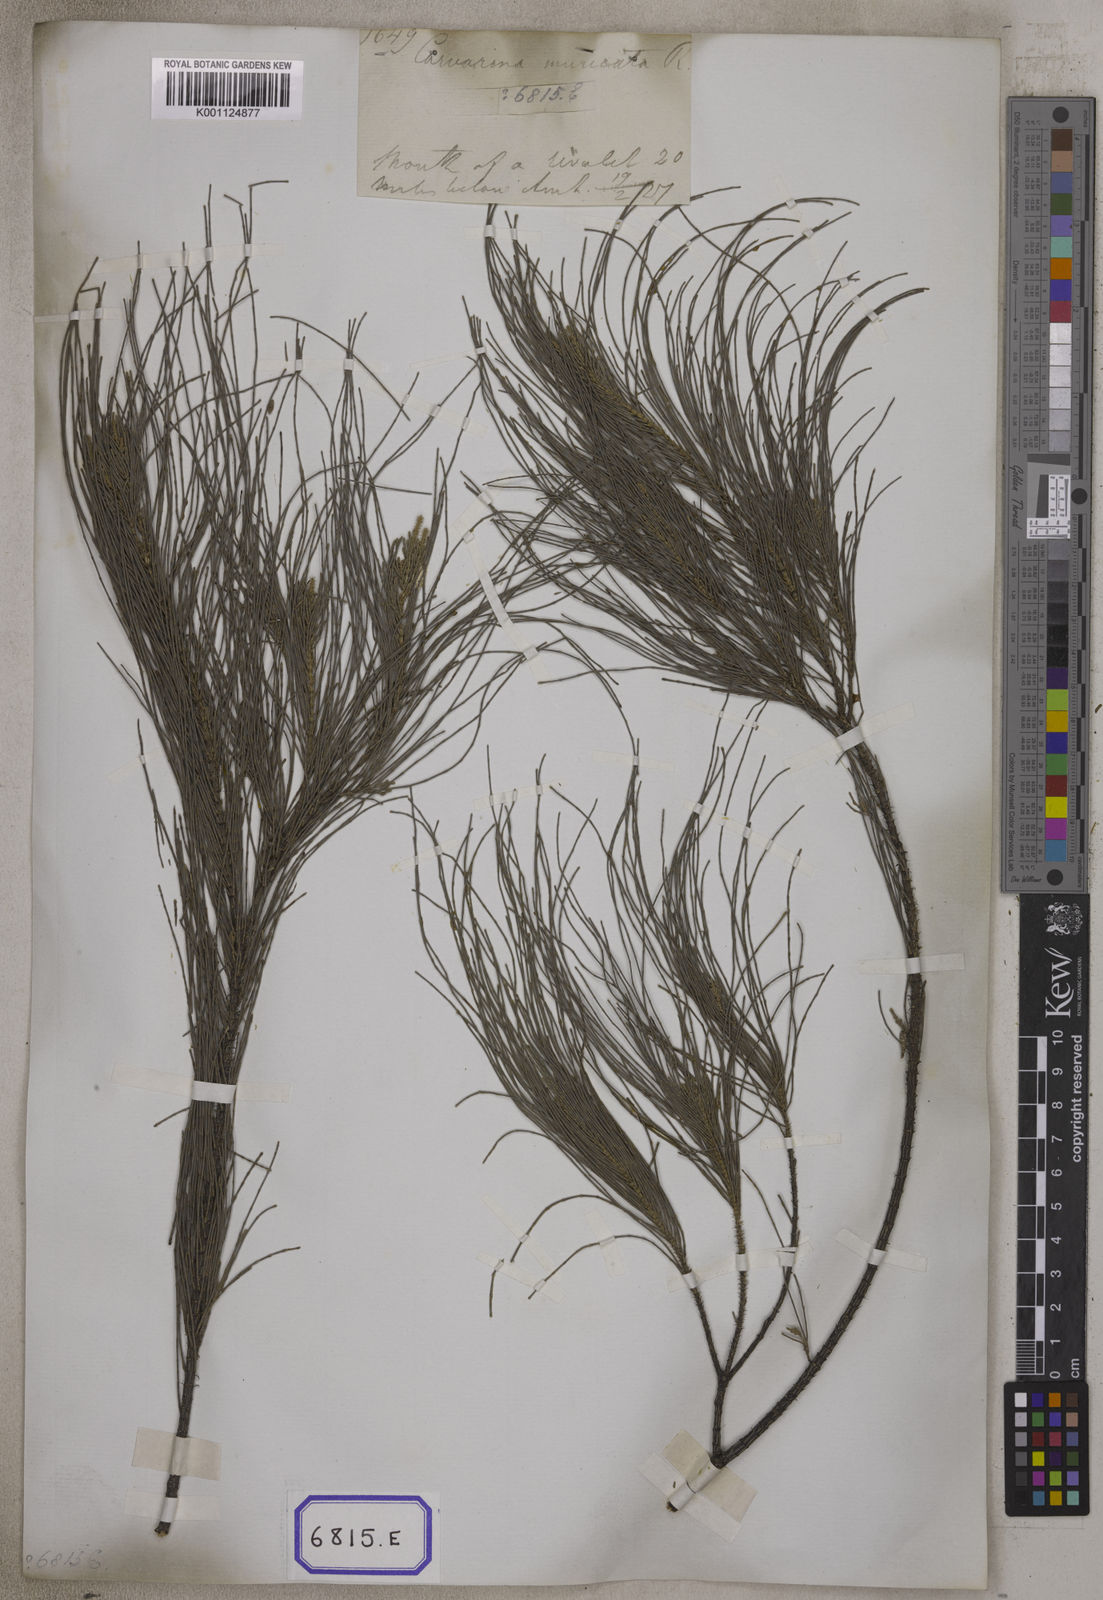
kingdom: Plantae
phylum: Tracheophyta
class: Magnoliopsida
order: Fagales
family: Casuarinaceae
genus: Casuarina
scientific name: Casuarina
